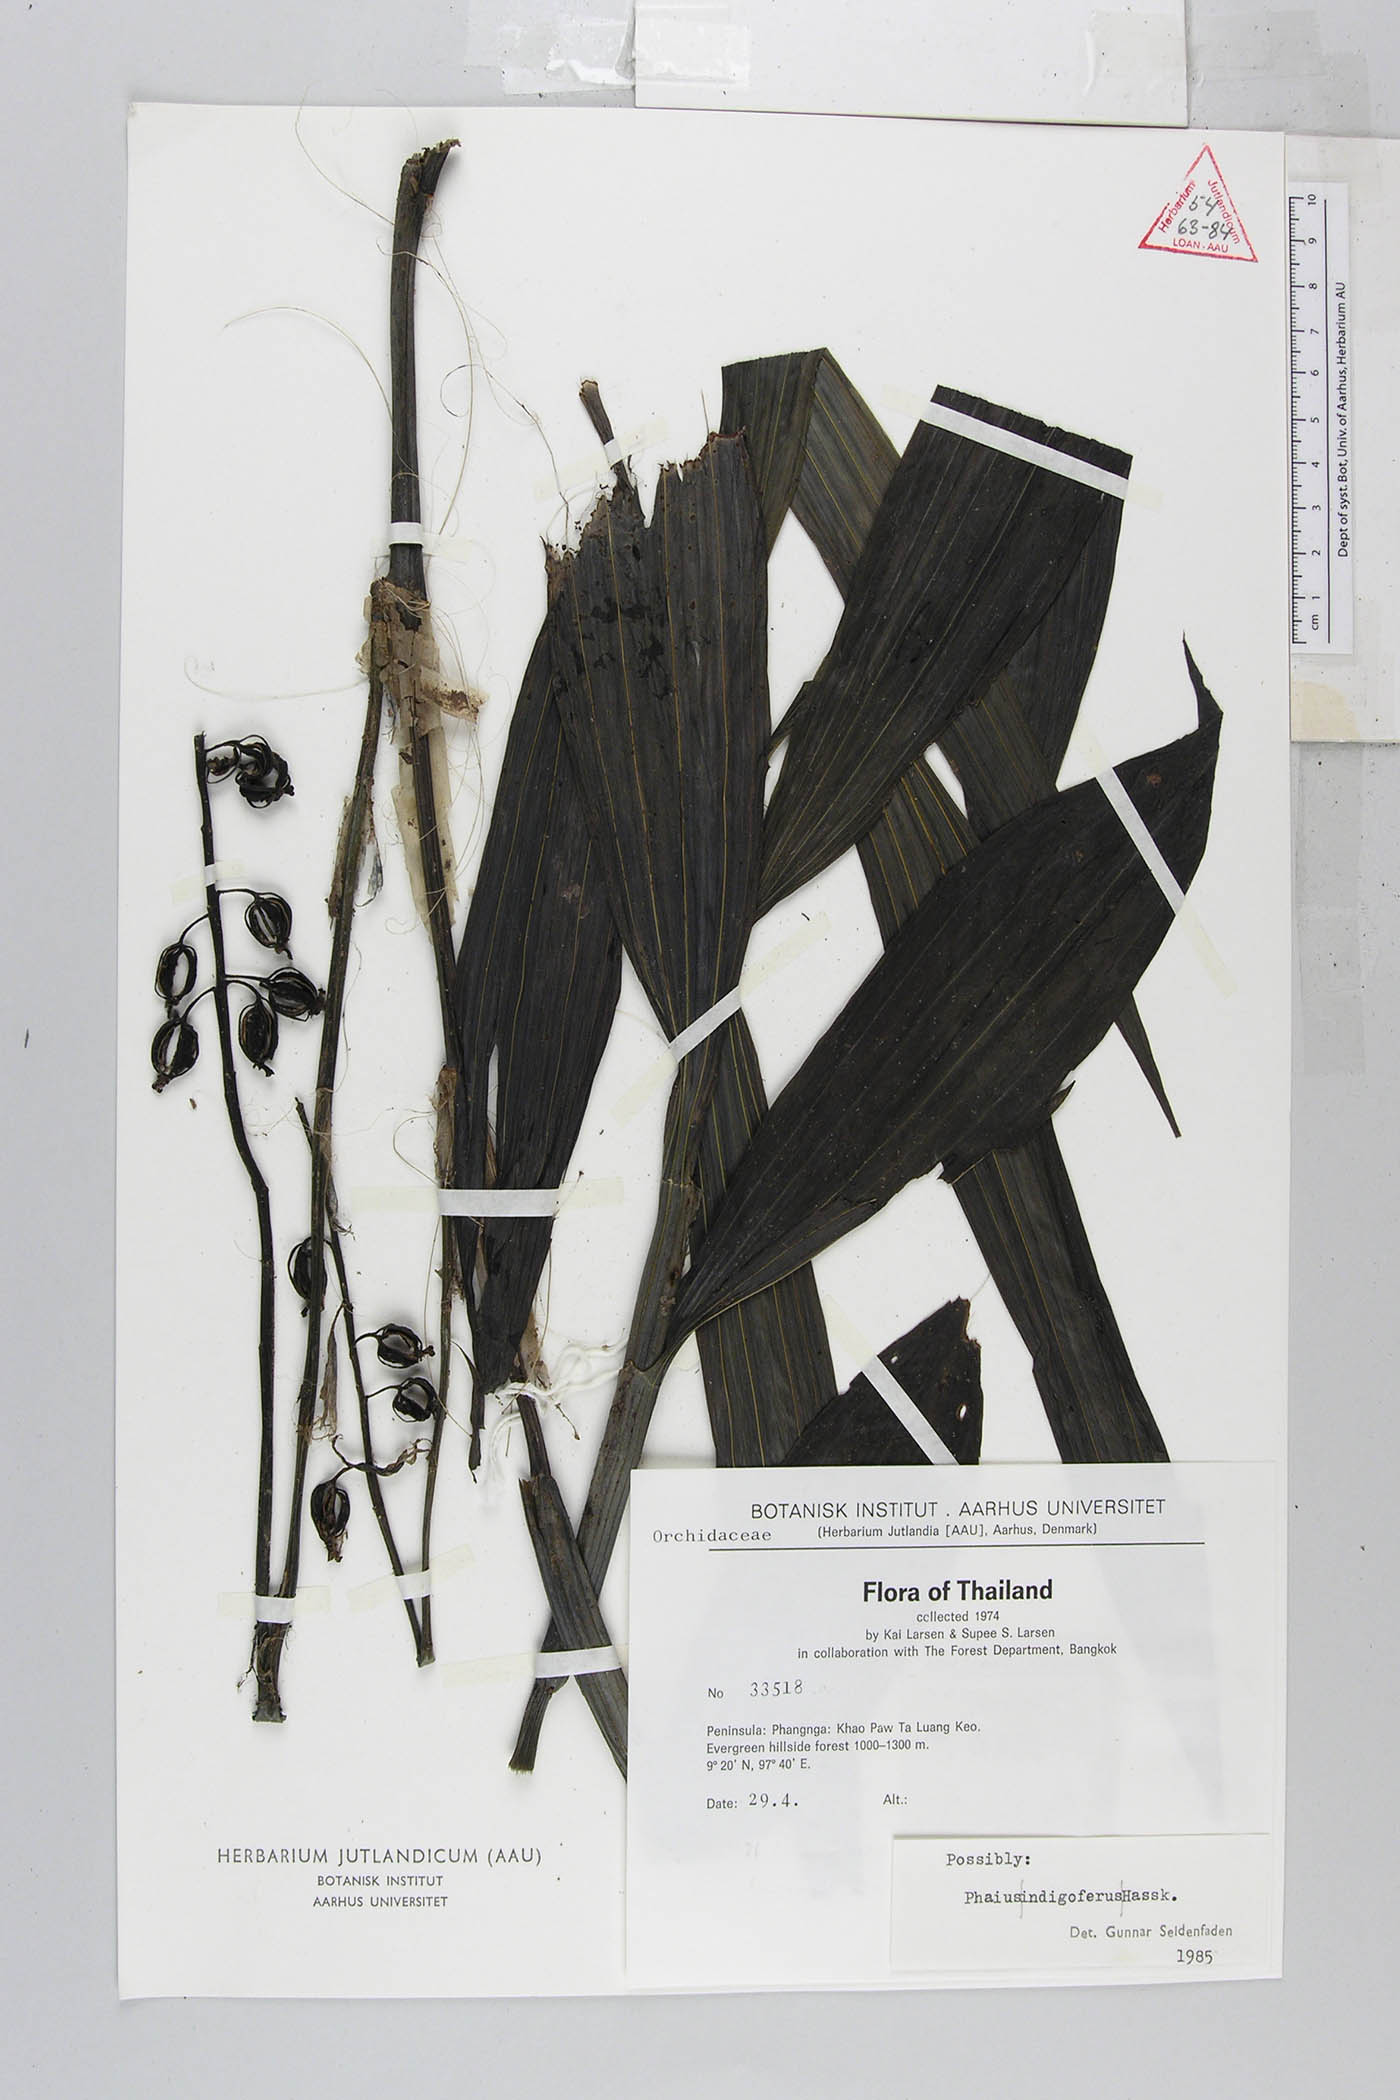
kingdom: Plantae
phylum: Tracheophyta
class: Liliopsida
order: Asparagales
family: Orchidaceae
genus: Calanthe
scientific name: Calanthe Phaius indigoferus
